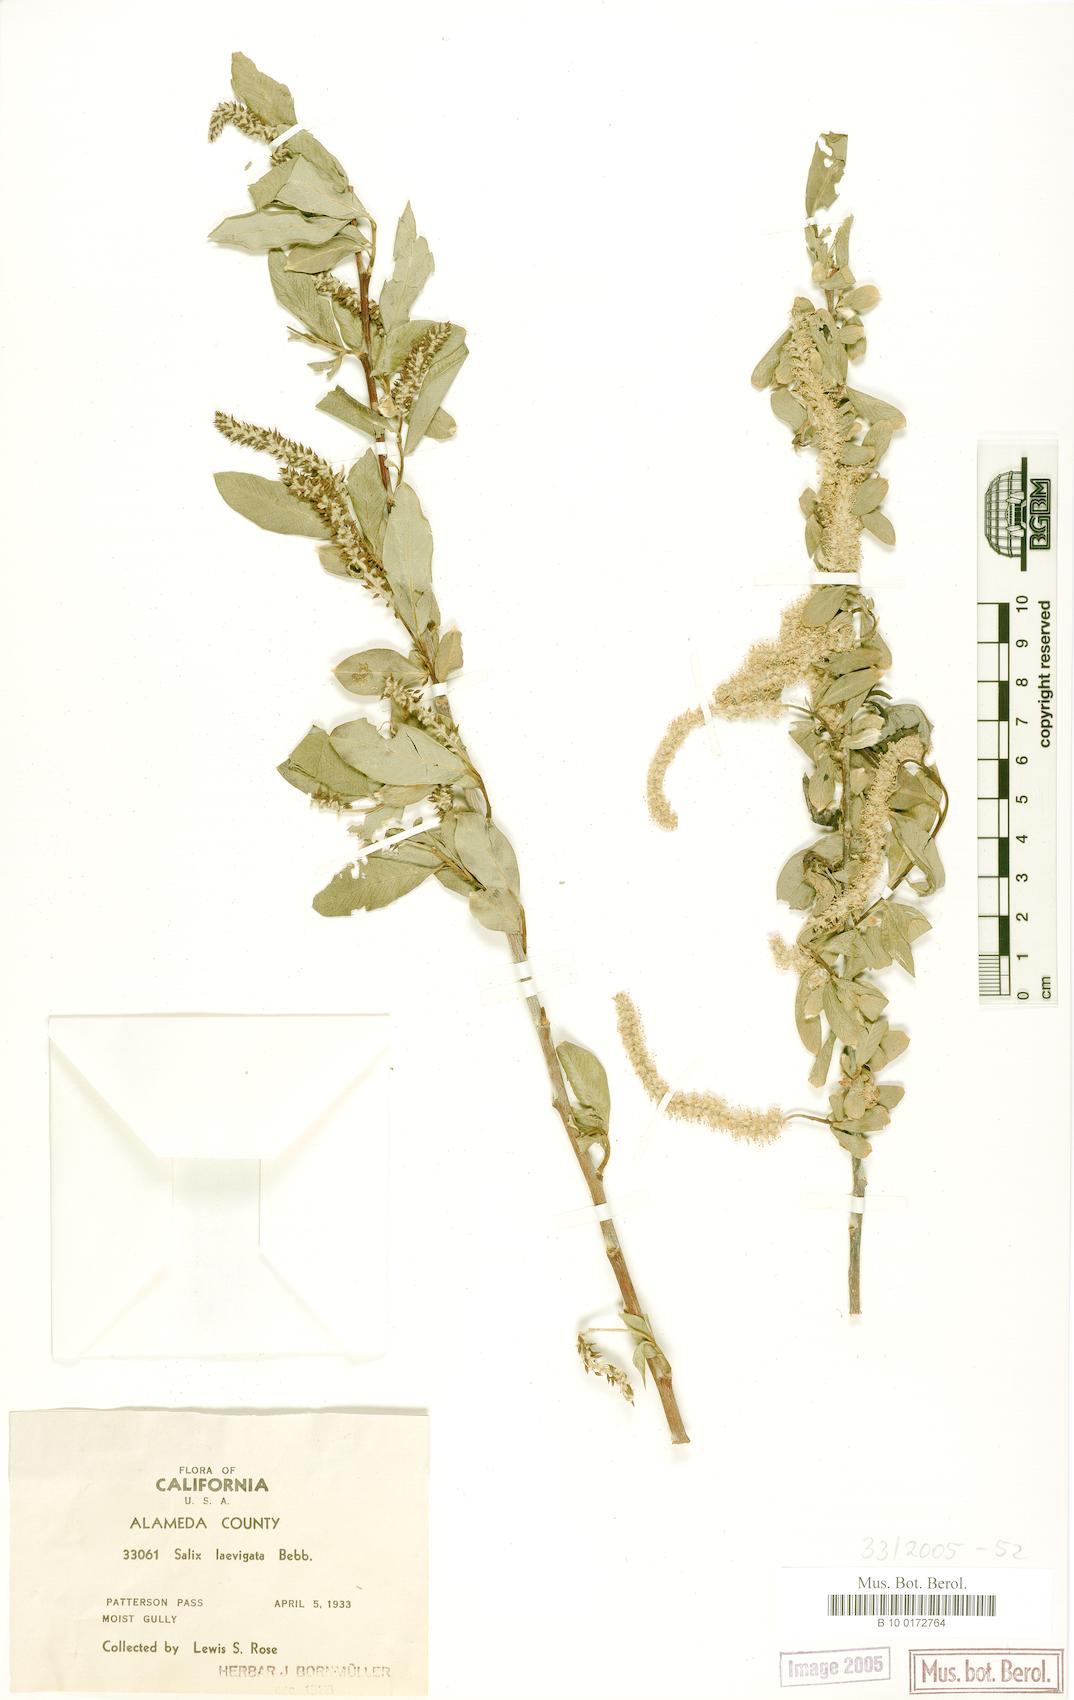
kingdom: Plantae
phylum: Tracheophyta
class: Magnoliopsida
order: Malpighiales
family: Salicaceae
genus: Salix
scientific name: Salix laevigata
